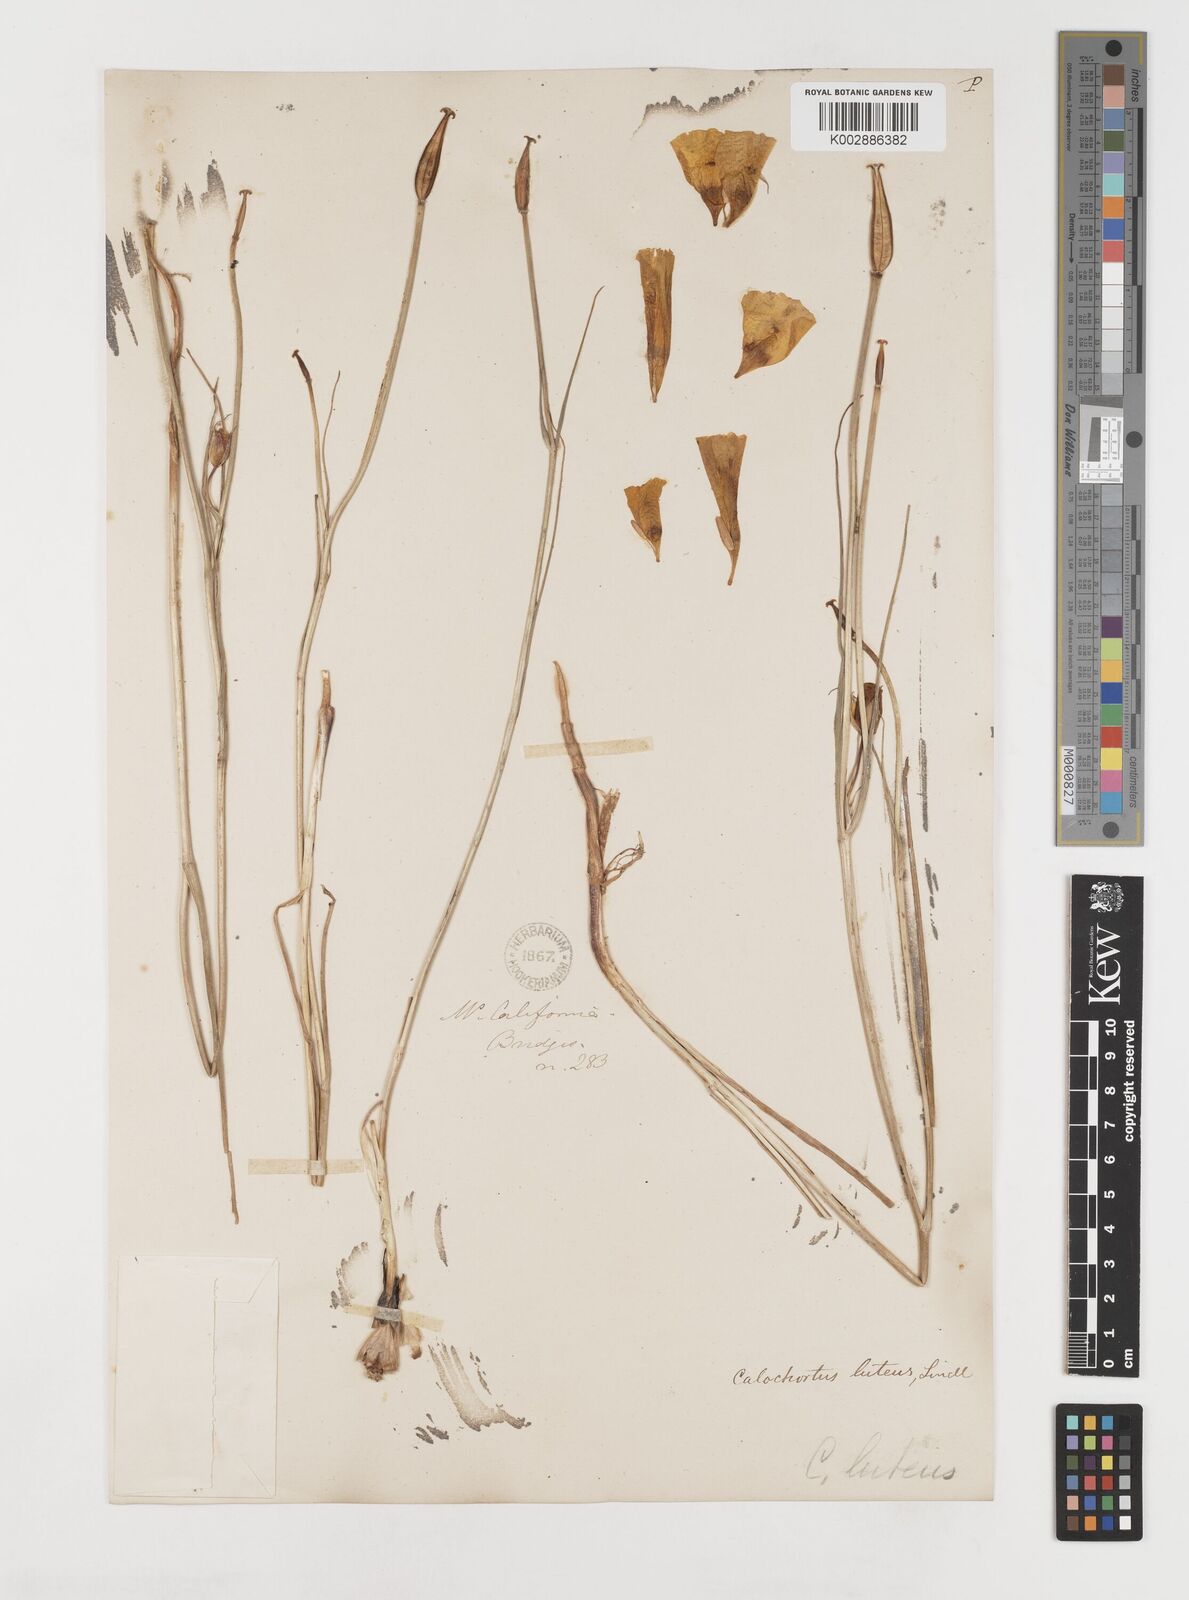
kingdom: Plantae
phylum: Tracheophyta
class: Liliopsida
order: Liliales
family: Liliaceae
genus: Calochortus
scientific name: Calochortus nuttallii
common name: Sego-lily
